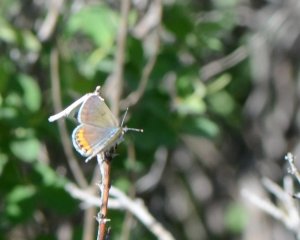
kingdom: Animalia
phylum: Arthropoda
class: Insecta
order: Lepidoptera
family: Lycaenidae
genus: Plebejus
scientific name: Plebejus acmon
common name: Acmon Blue
